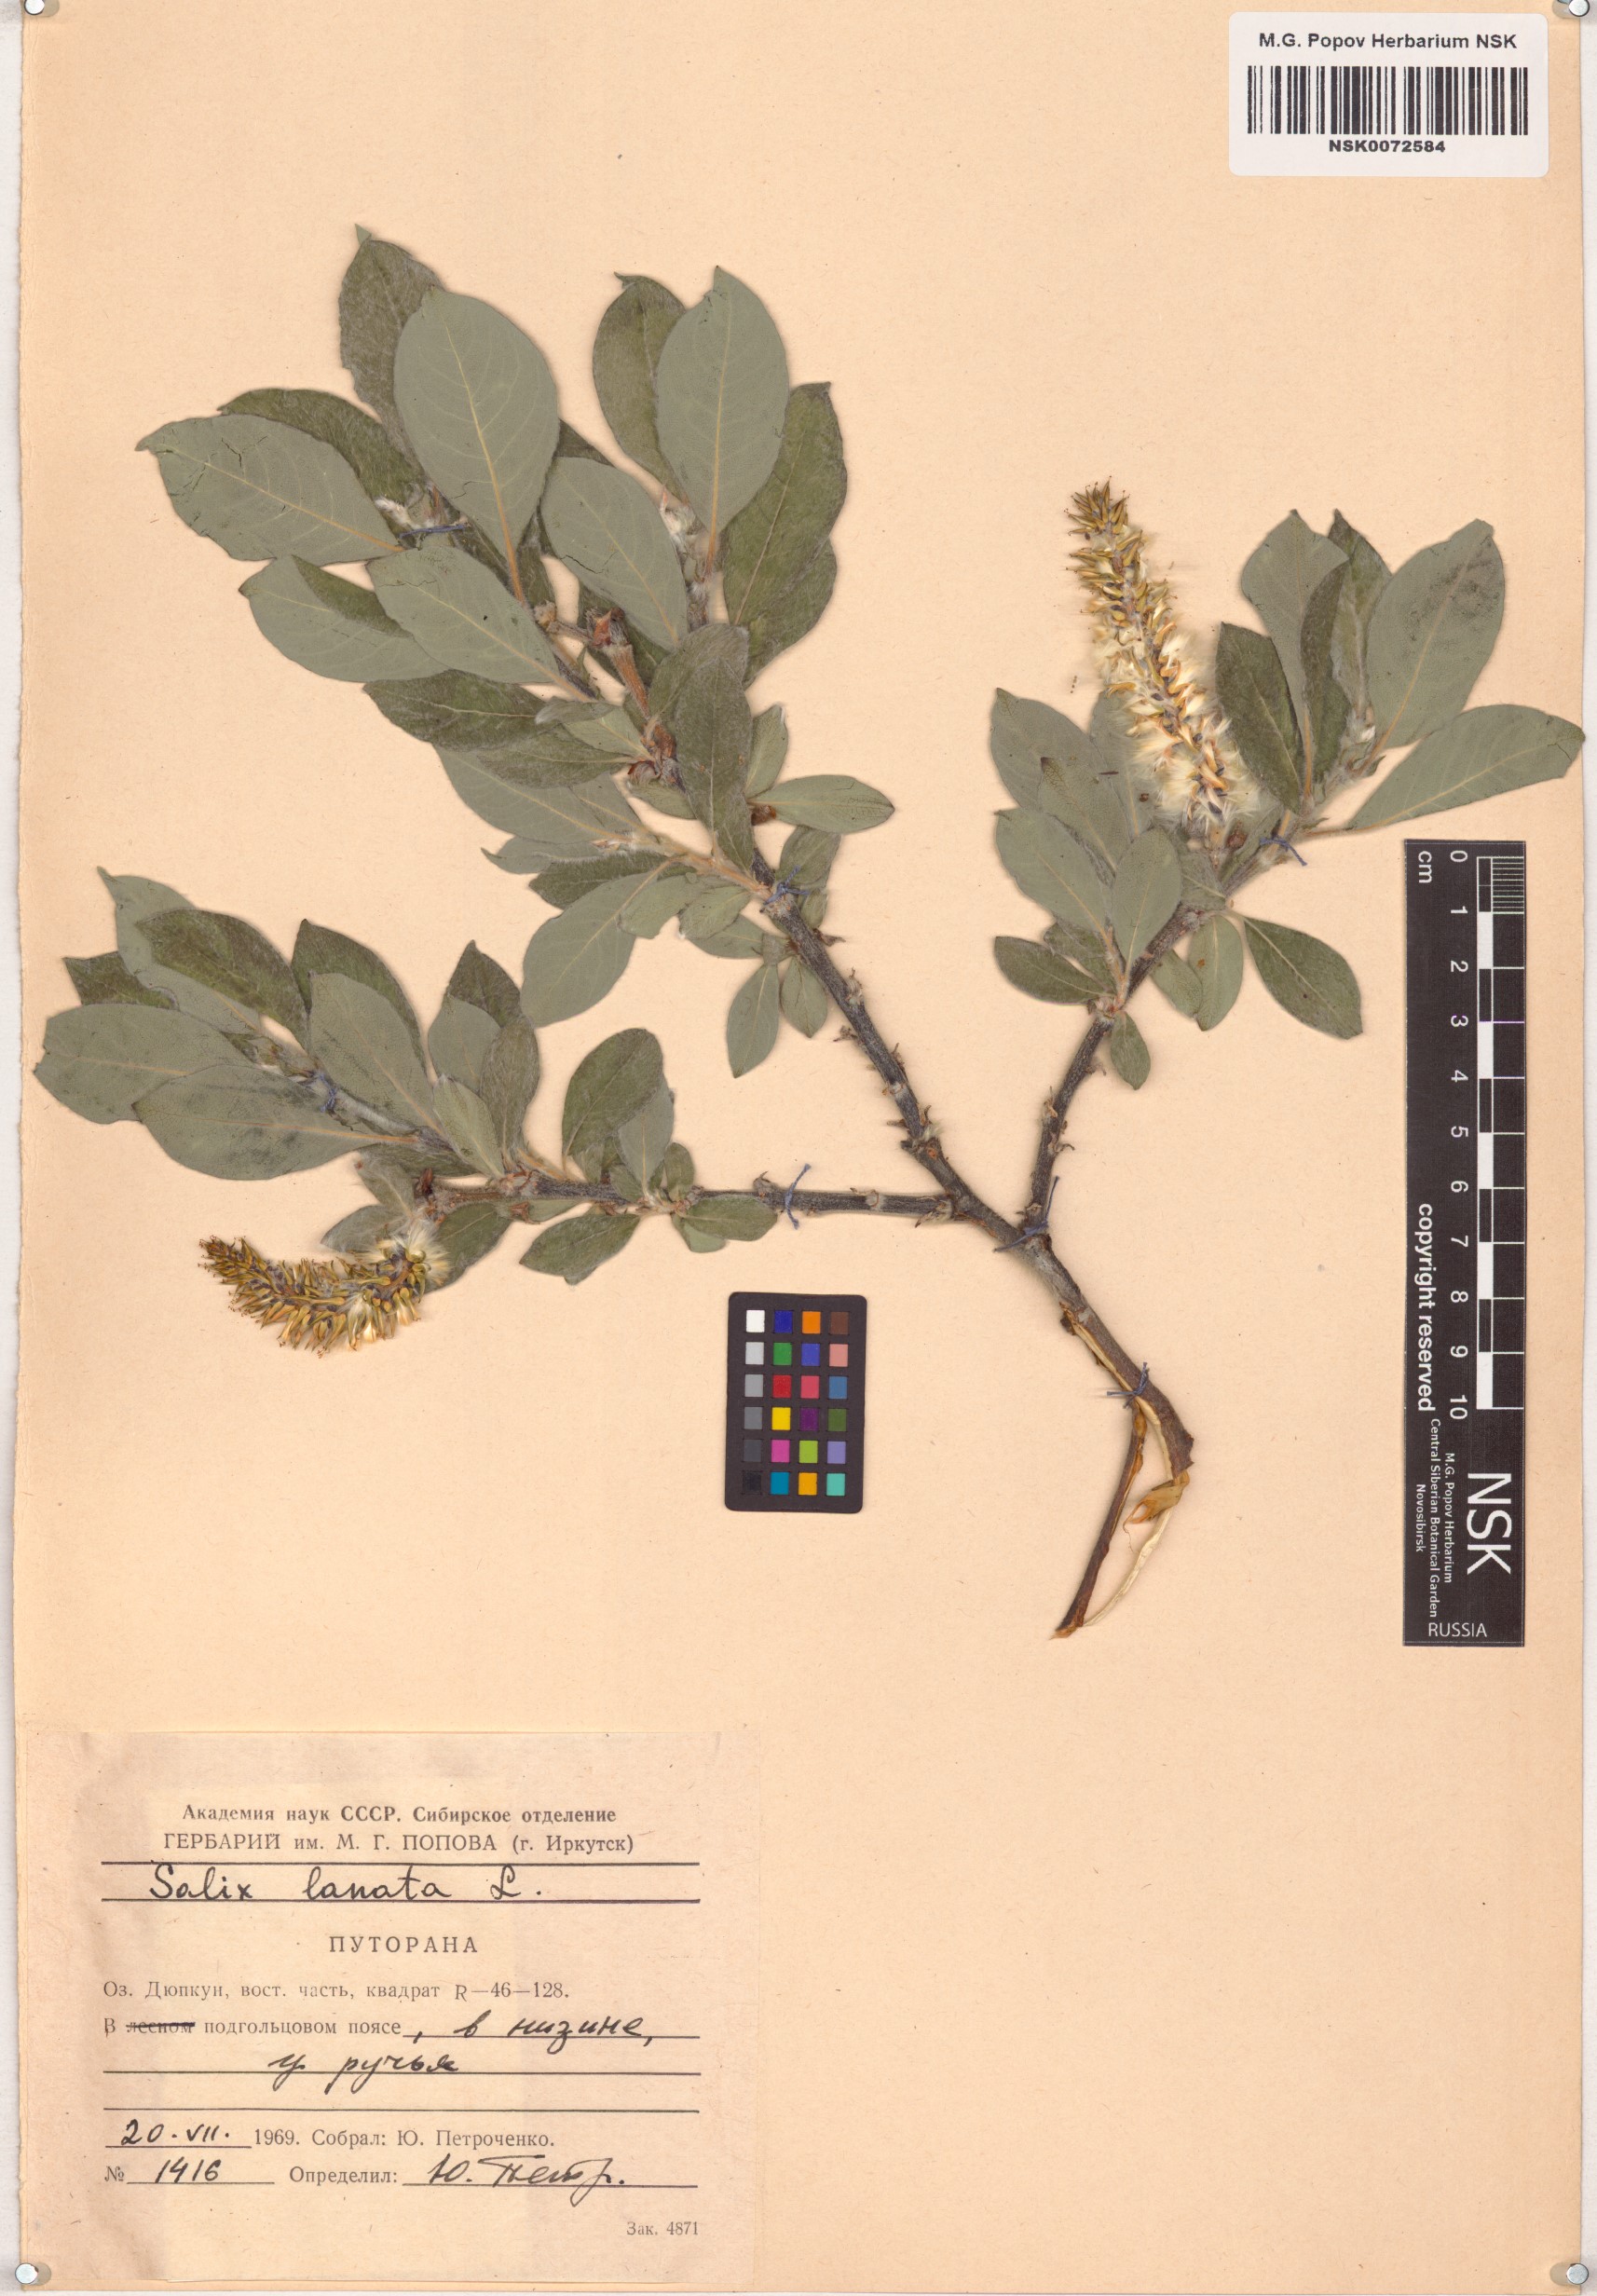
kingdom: Plantae
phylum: Tracheophyta
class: Magnoliopsida
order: Malpighiales
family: Salicaceae
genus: Salix
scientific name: Salix lanata
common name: Woolly willow
